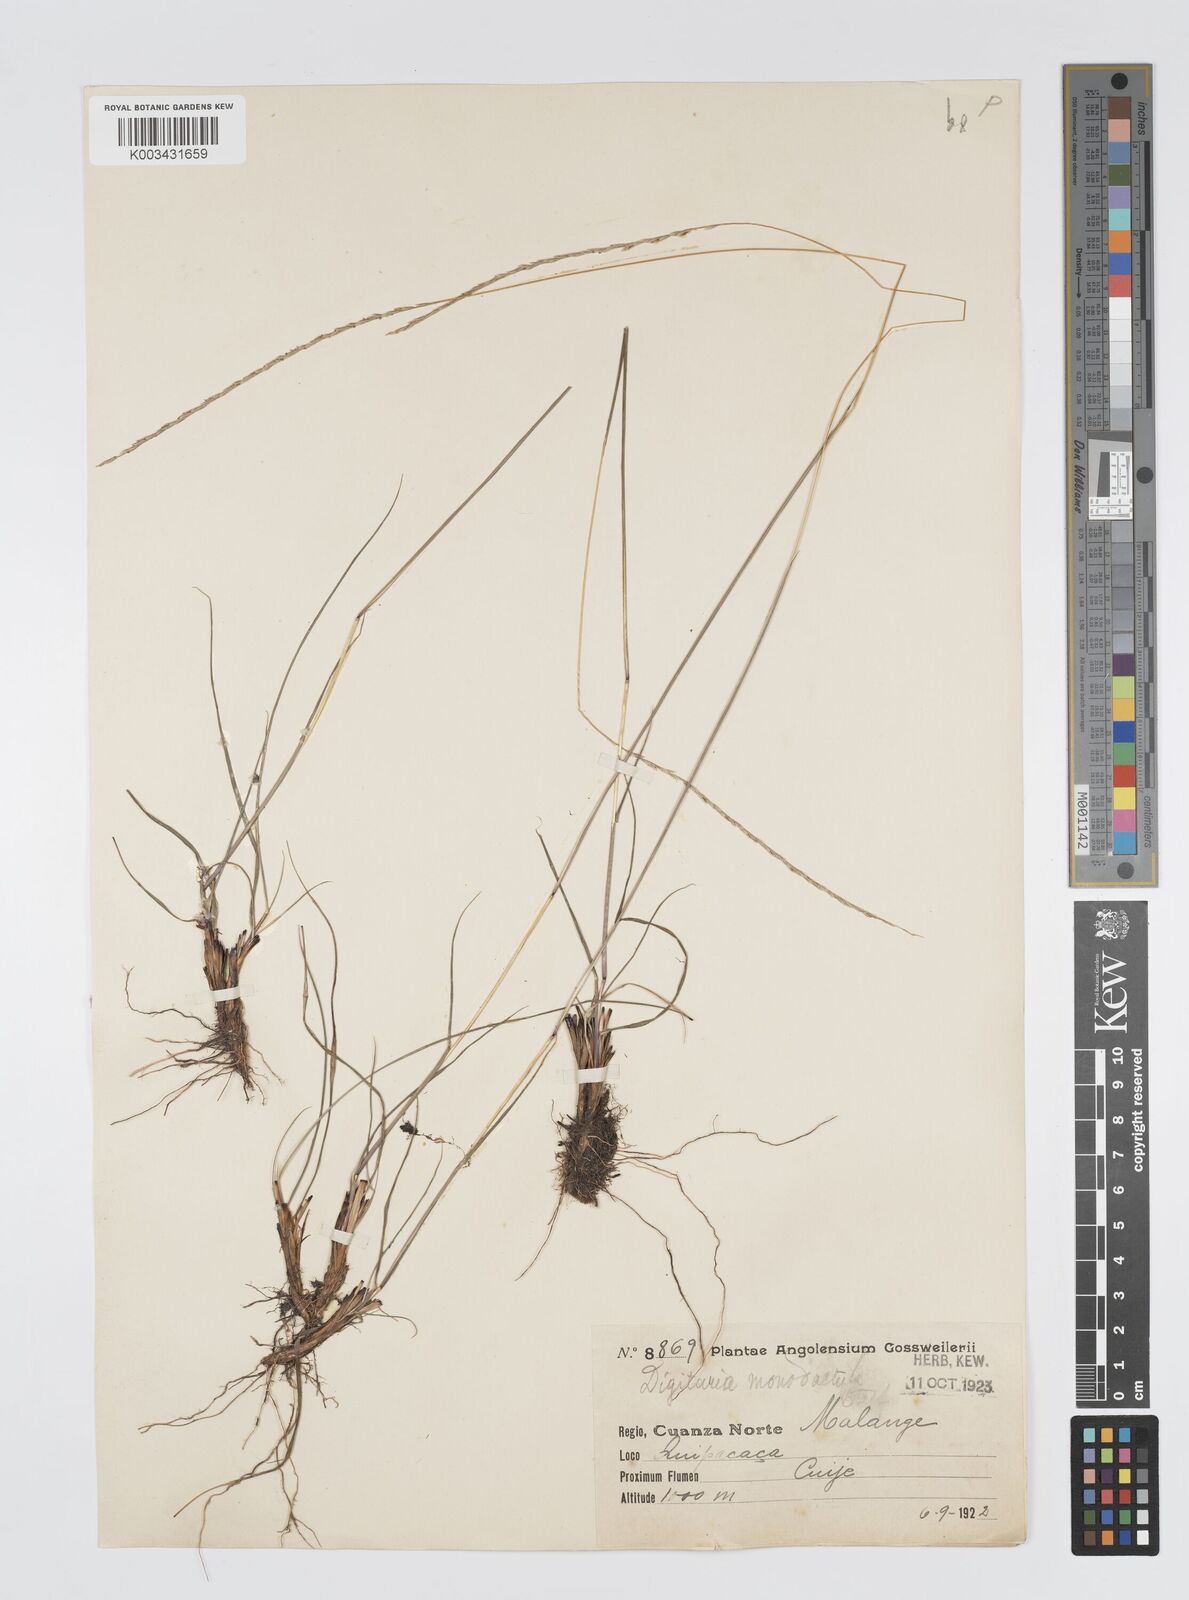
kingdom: Plantae
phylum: Tracheophyta
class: Liliopsida
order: Poales
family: Poaceae
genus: Digitaria
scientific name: Digitaria monodactyla
